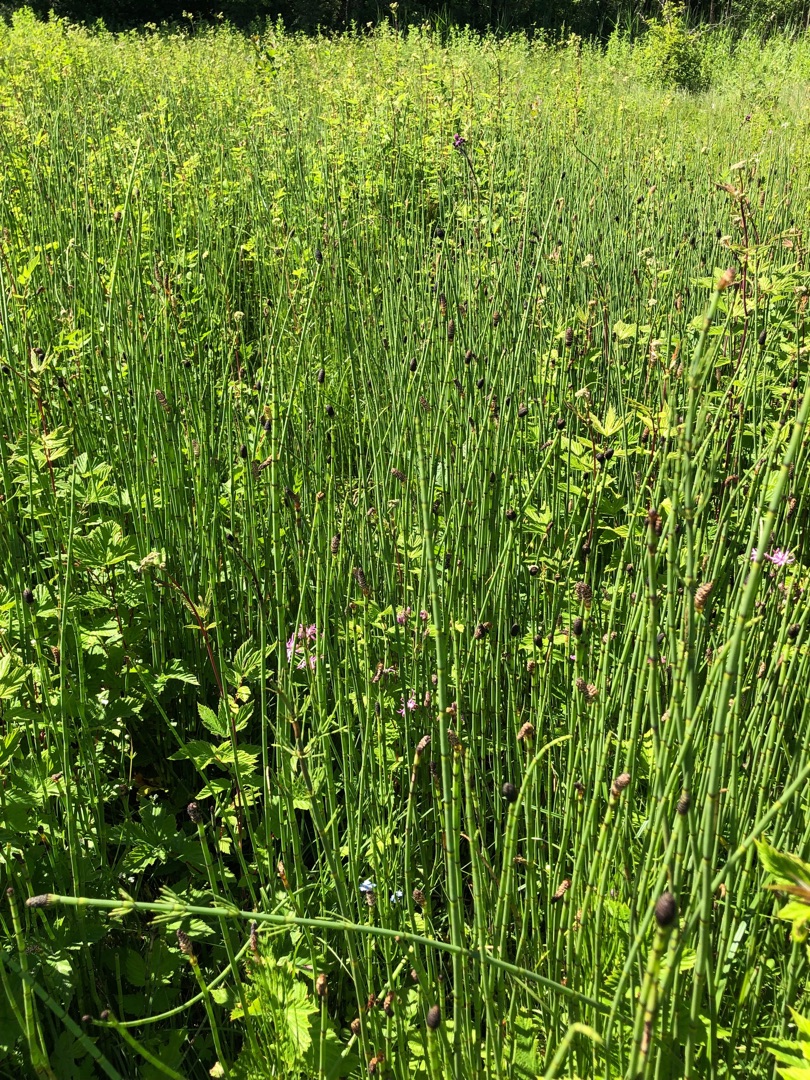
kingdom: Plantae
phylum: Tracheophyta
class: Polypodiopsida
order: Equisetales
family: Equisetaceae
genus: Equisetum
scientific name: Equisetum fluviatile
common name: Dynd-padderok
